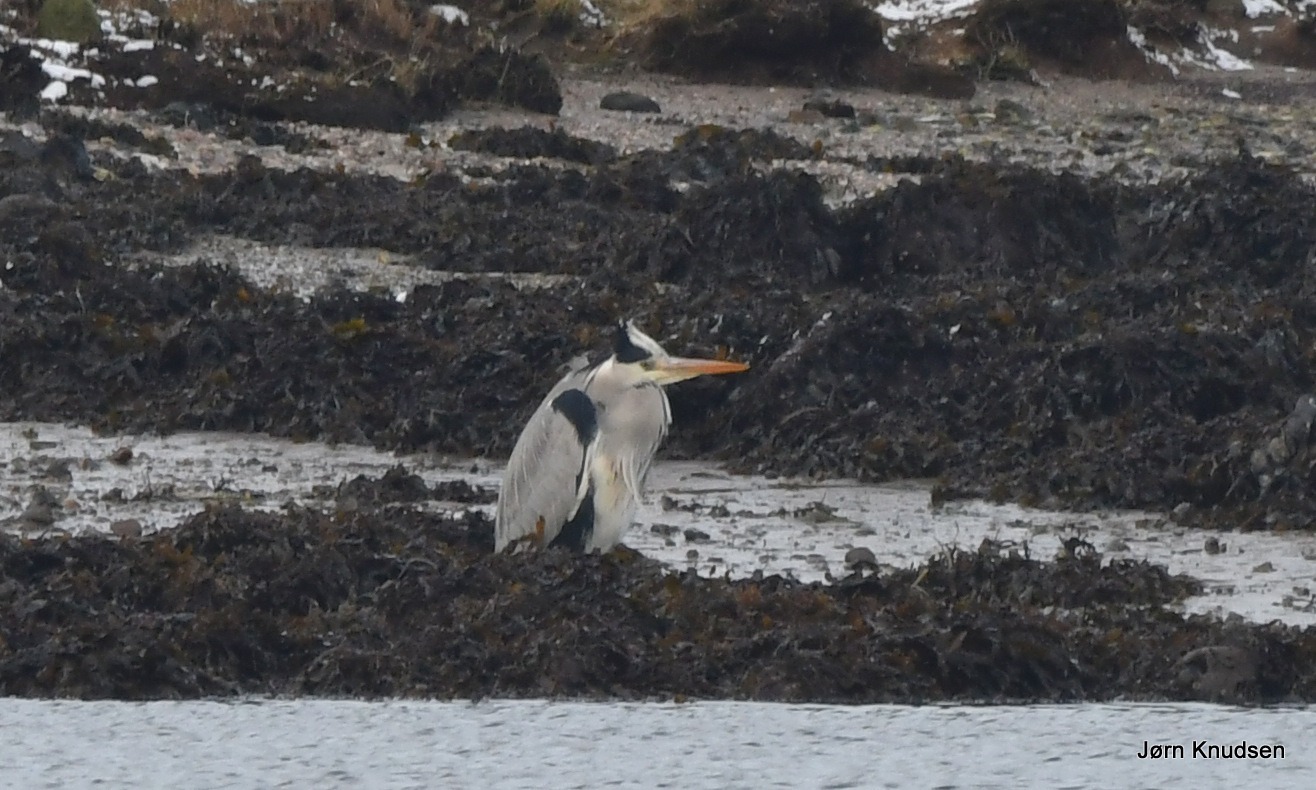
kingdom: Animalia
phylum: Chordata
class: Aves
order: Pelecaniformes
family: Ardeidae
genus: Ardea
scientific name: Ardea cinerea
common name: Fiskehejre
